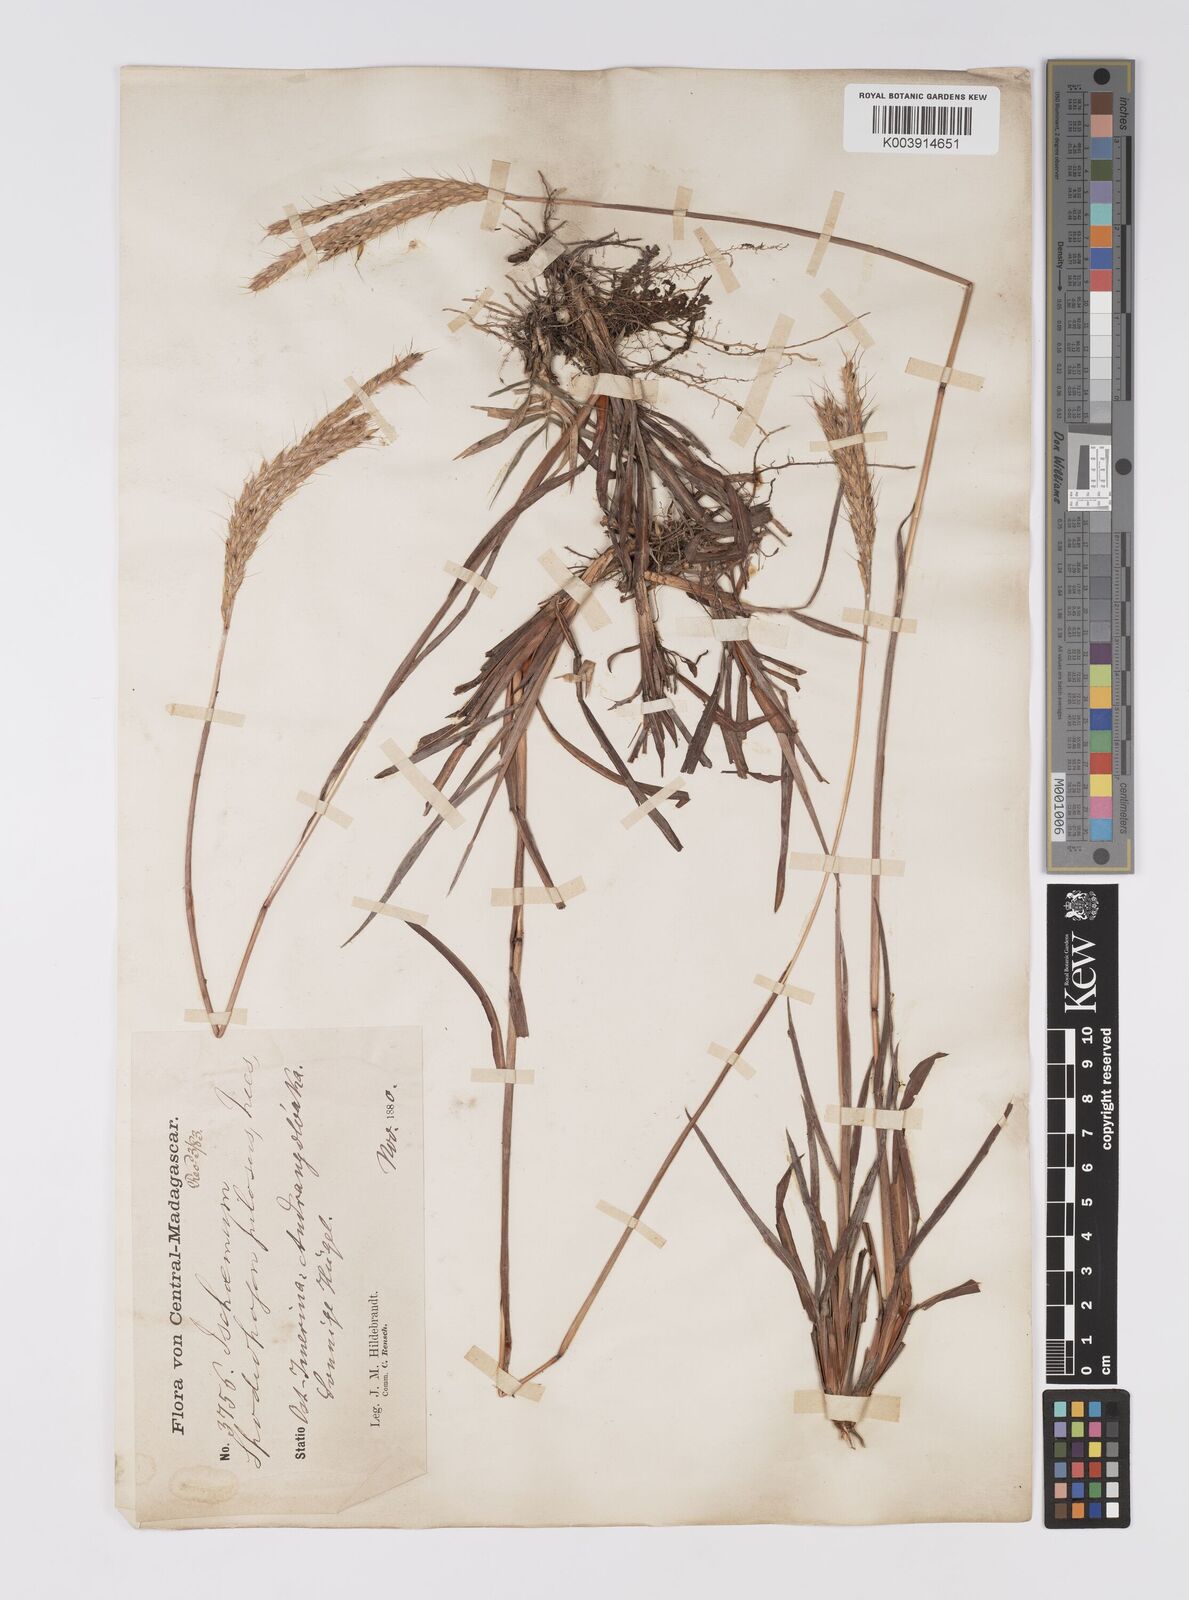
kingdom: Plantae
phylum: Tracheophyta
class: Liliopsida
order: Poales
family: Poaceae
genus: Eulalia
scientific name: Eulalia villosa
